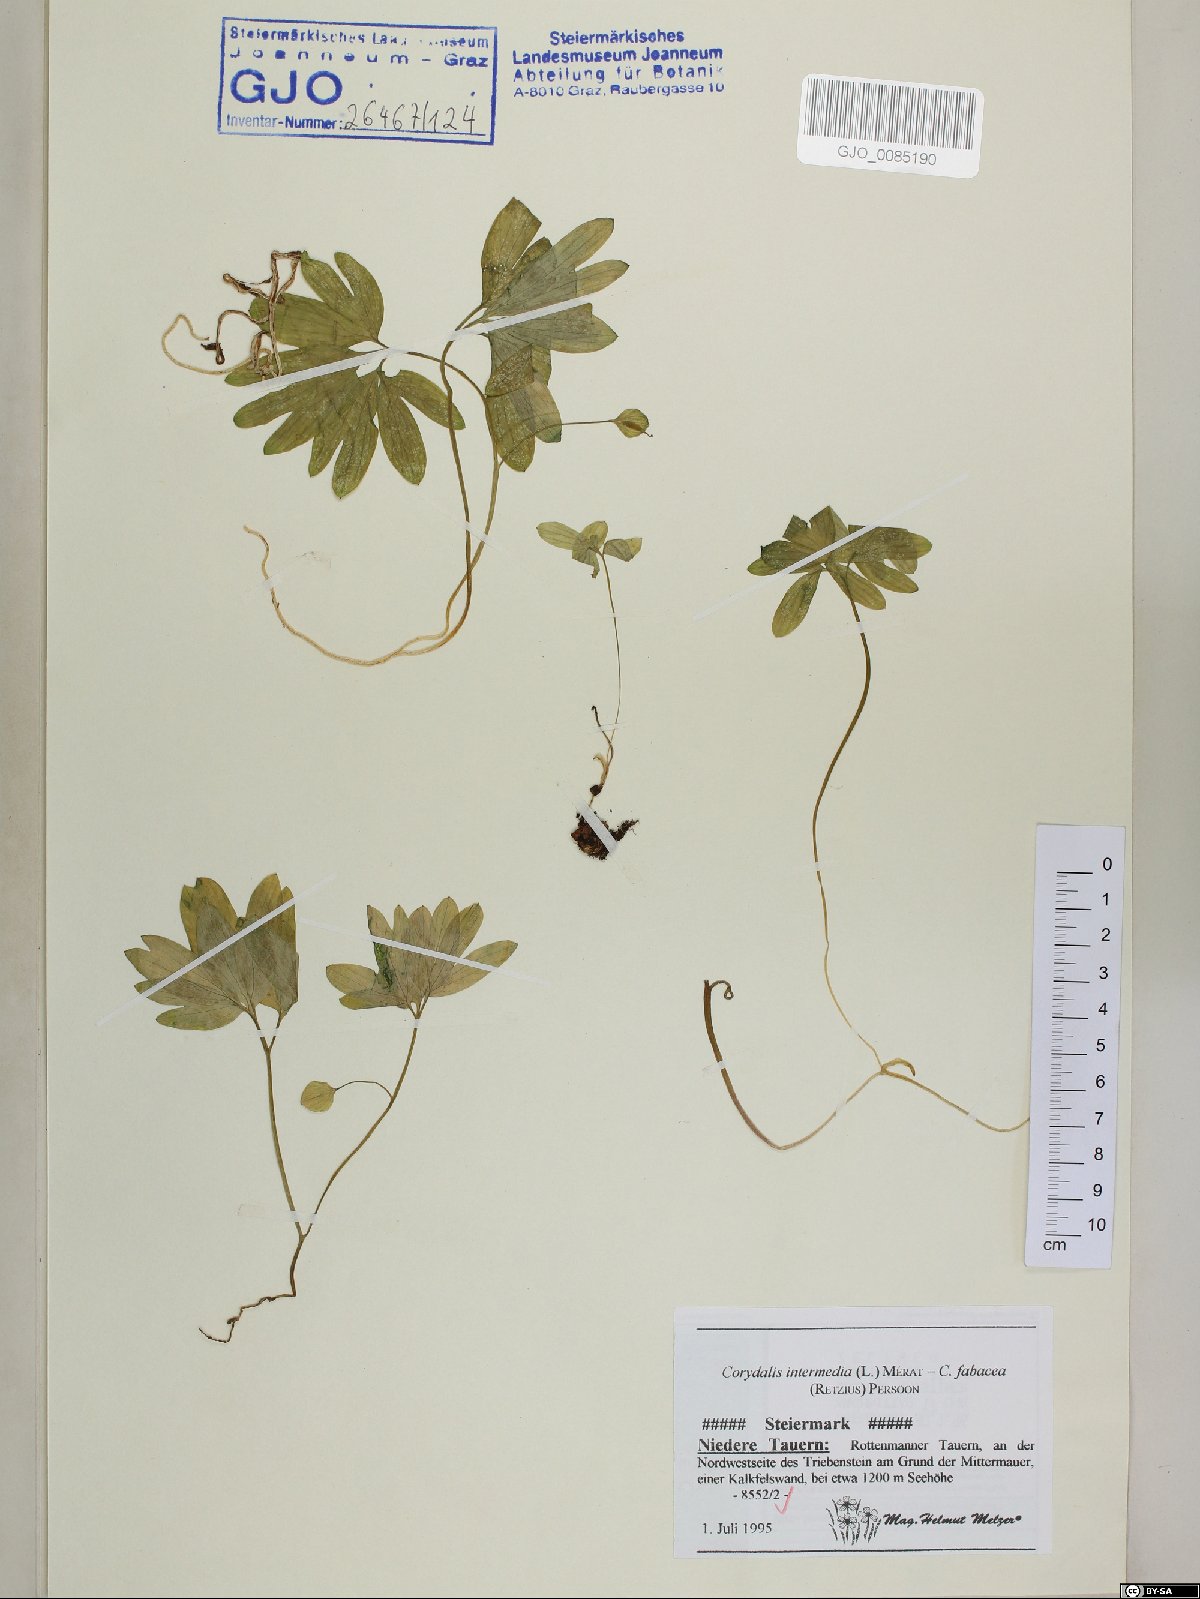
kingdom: Plantae
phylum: Tracheophyta
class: Magnoliopsida
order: Ranunculales
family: Papaveraceae
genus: Corydalis
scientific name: Corydalis intermedia
